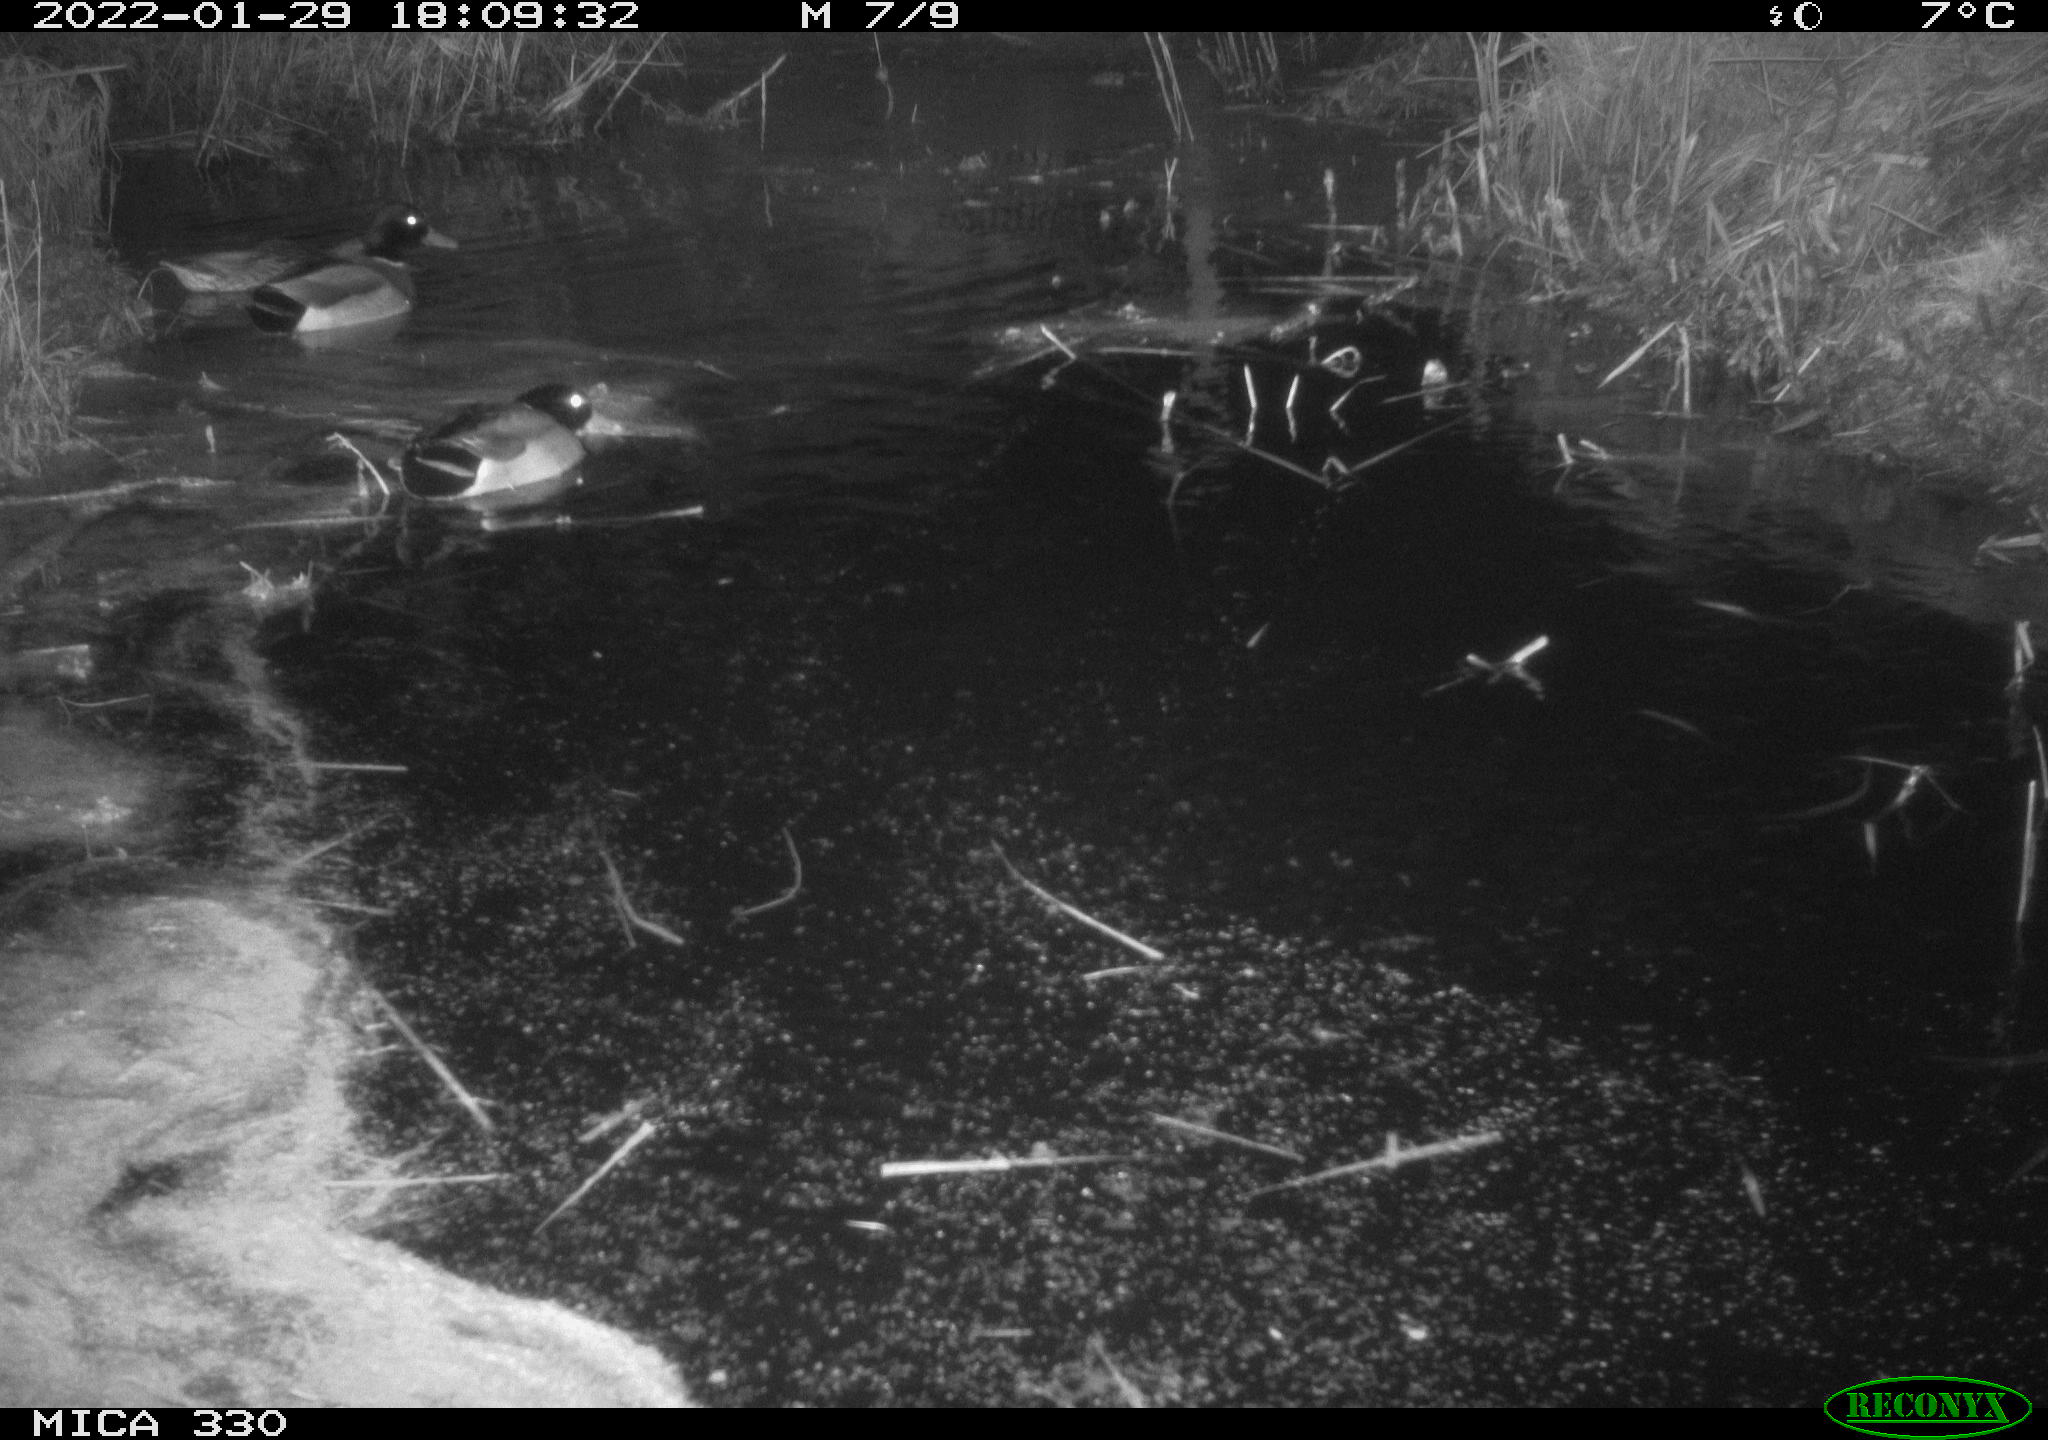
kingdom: Animalia
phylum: Chordata
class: Aves
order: Anseriformes
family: Anatidae
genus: Anas
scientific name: Anas platyrhynchos
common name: Mallard
